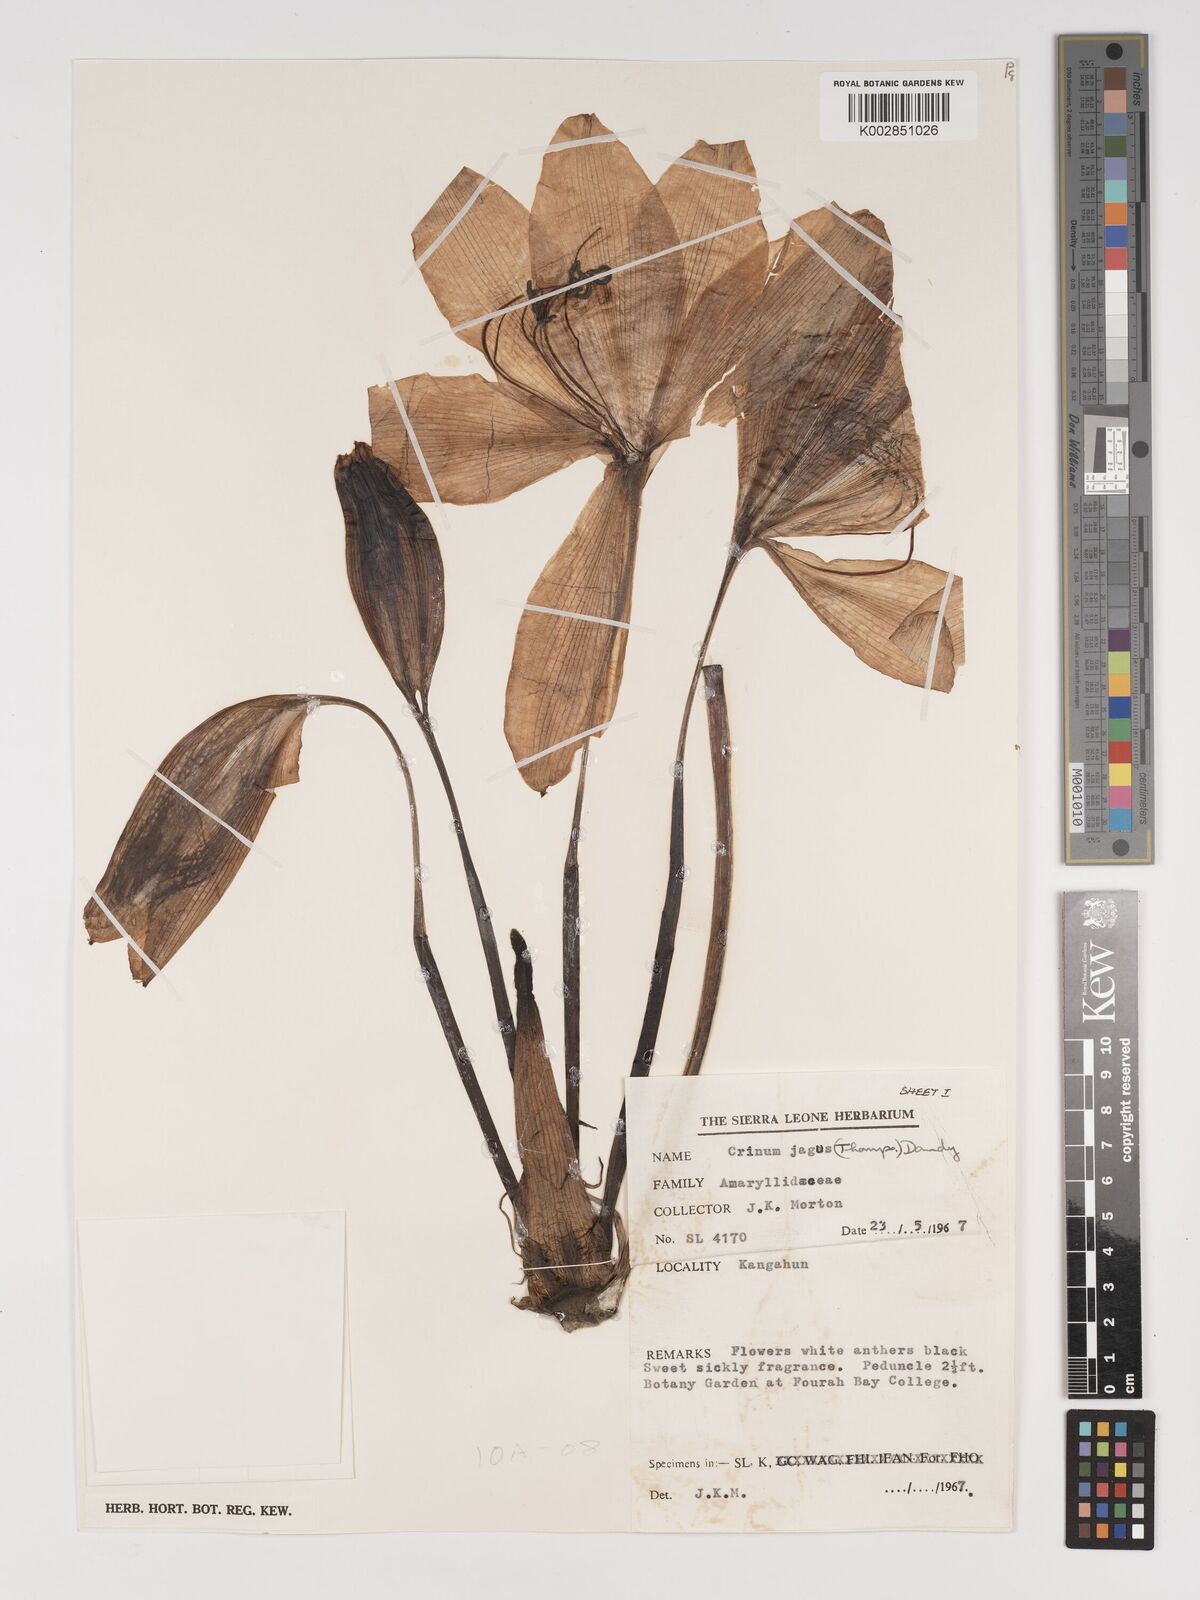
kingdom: Plantae
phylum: Tracheophyta
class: Liliopsida
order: Asparagales
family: Amaryllidaceae
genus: Crinum
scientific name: Crinum jagus
